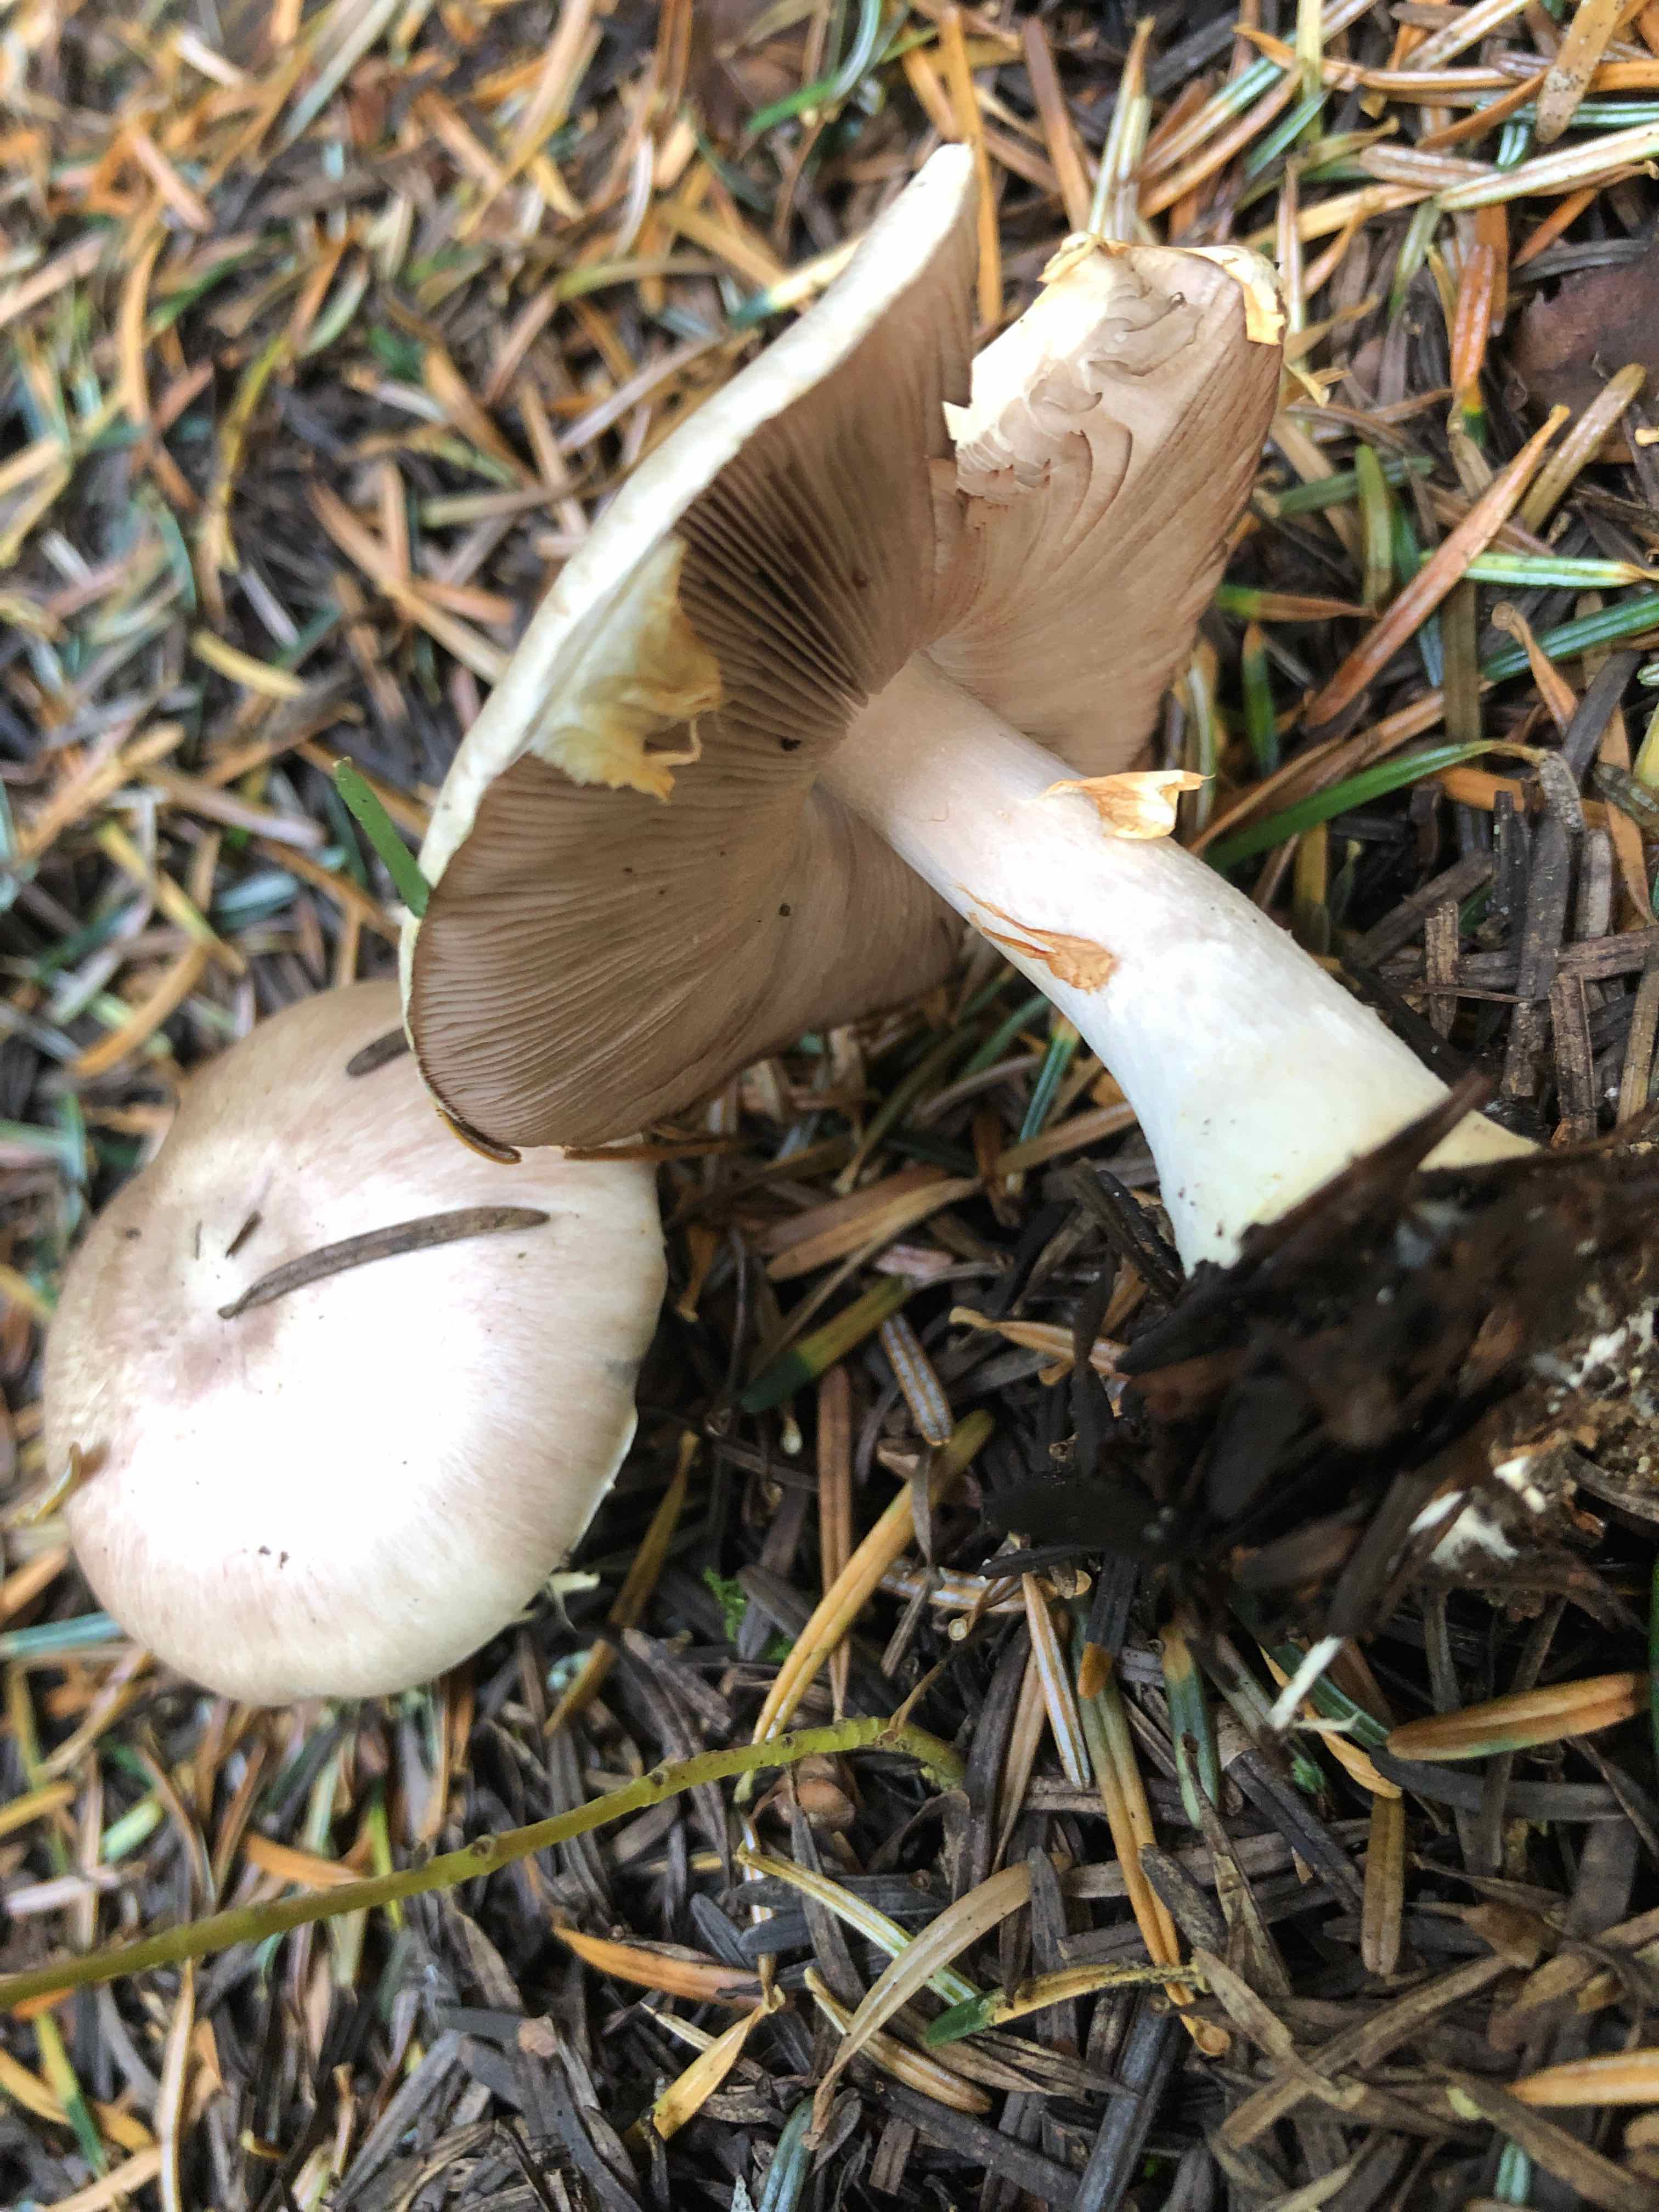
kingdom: Fungi
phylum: Basidiomycota
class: Agaricomycetes
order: Agaricales
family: Agaricaceae
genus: Agaricus
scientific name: Agaricus
